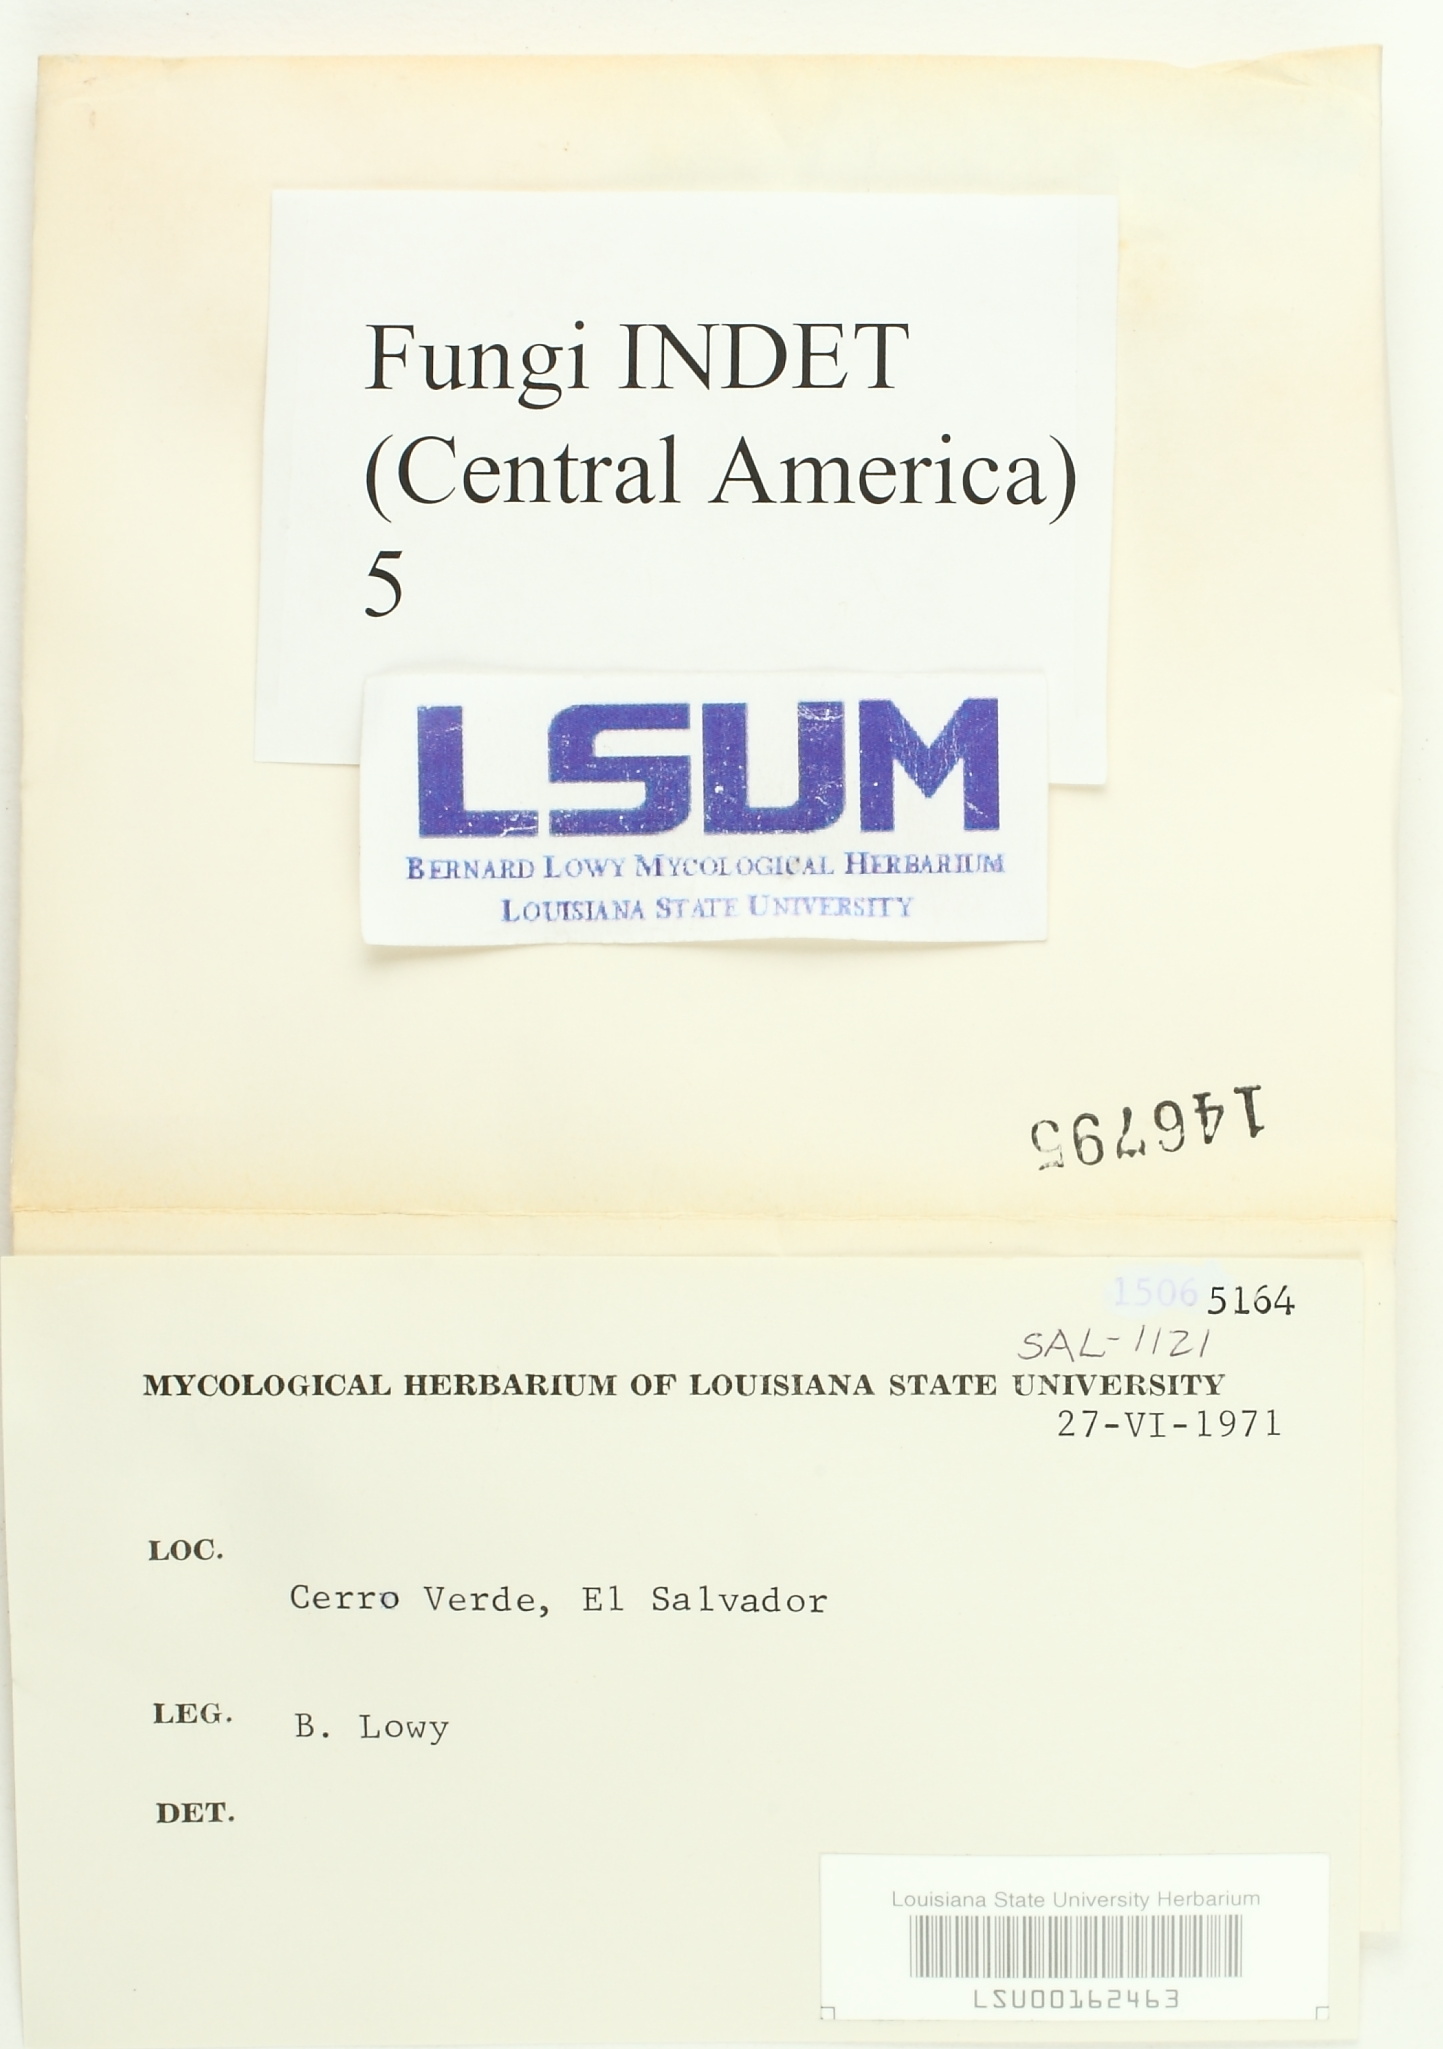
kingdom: Fungi
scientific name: Fungi
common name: Fungi
